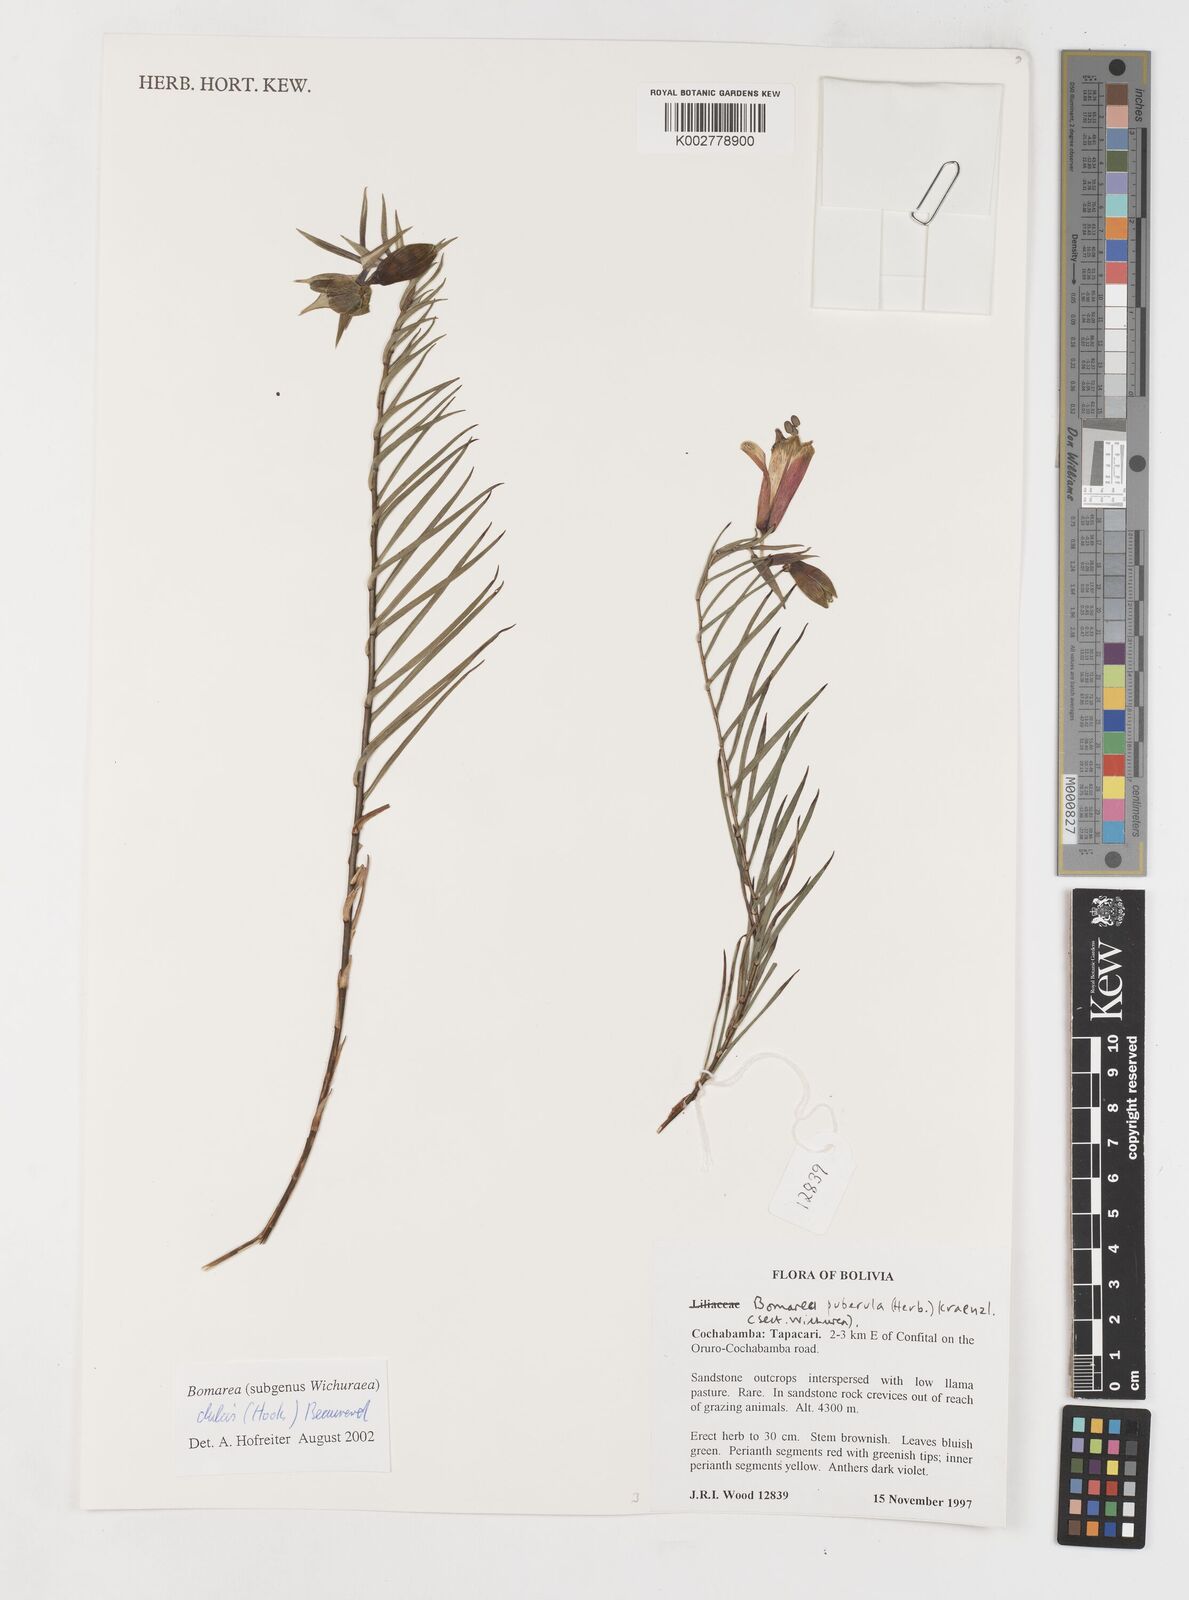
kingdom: Plantae
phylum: Tracheophyta
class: Liliopsida
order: Liliales
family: Alstroemeriaceae
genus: Bomarea
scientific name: Bomarea dulcis
